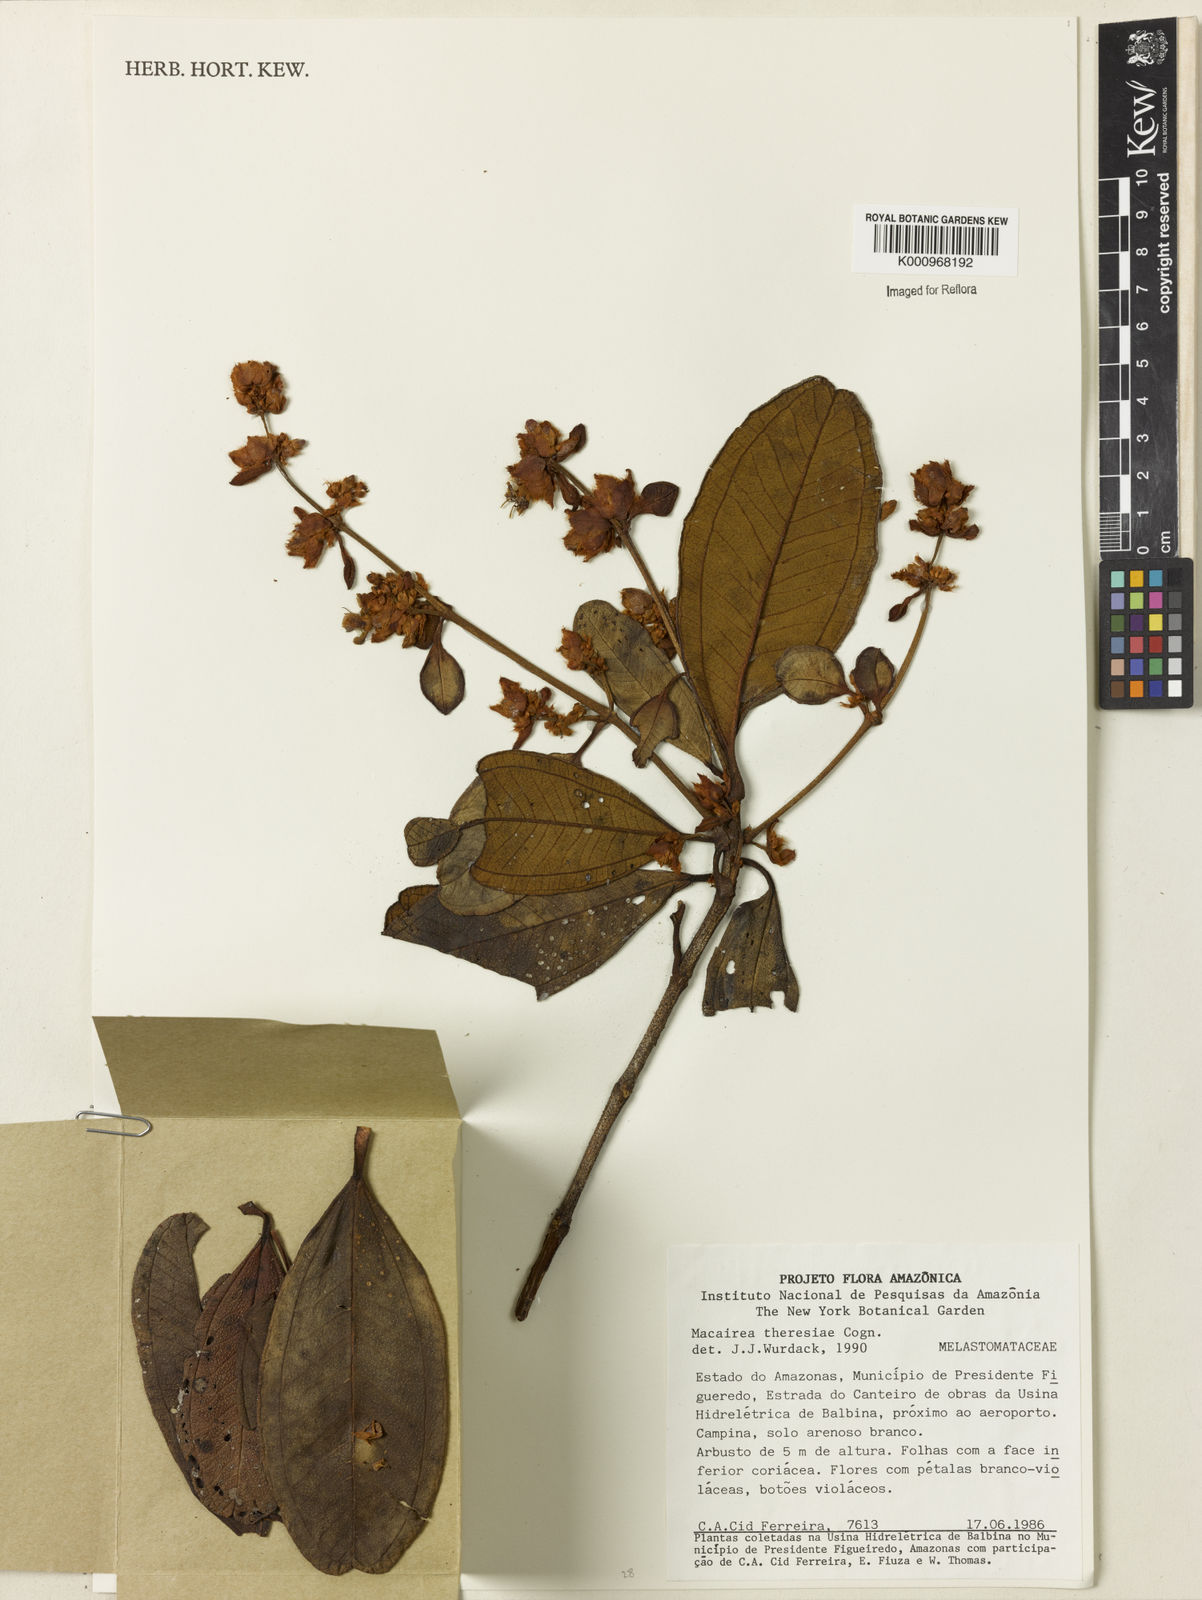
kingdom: Plantae
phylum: Tracheophyta
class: Magnoliopsida
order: Myrtales
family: Melastomataceae
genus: Macairea
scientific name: Macairea theresiae
